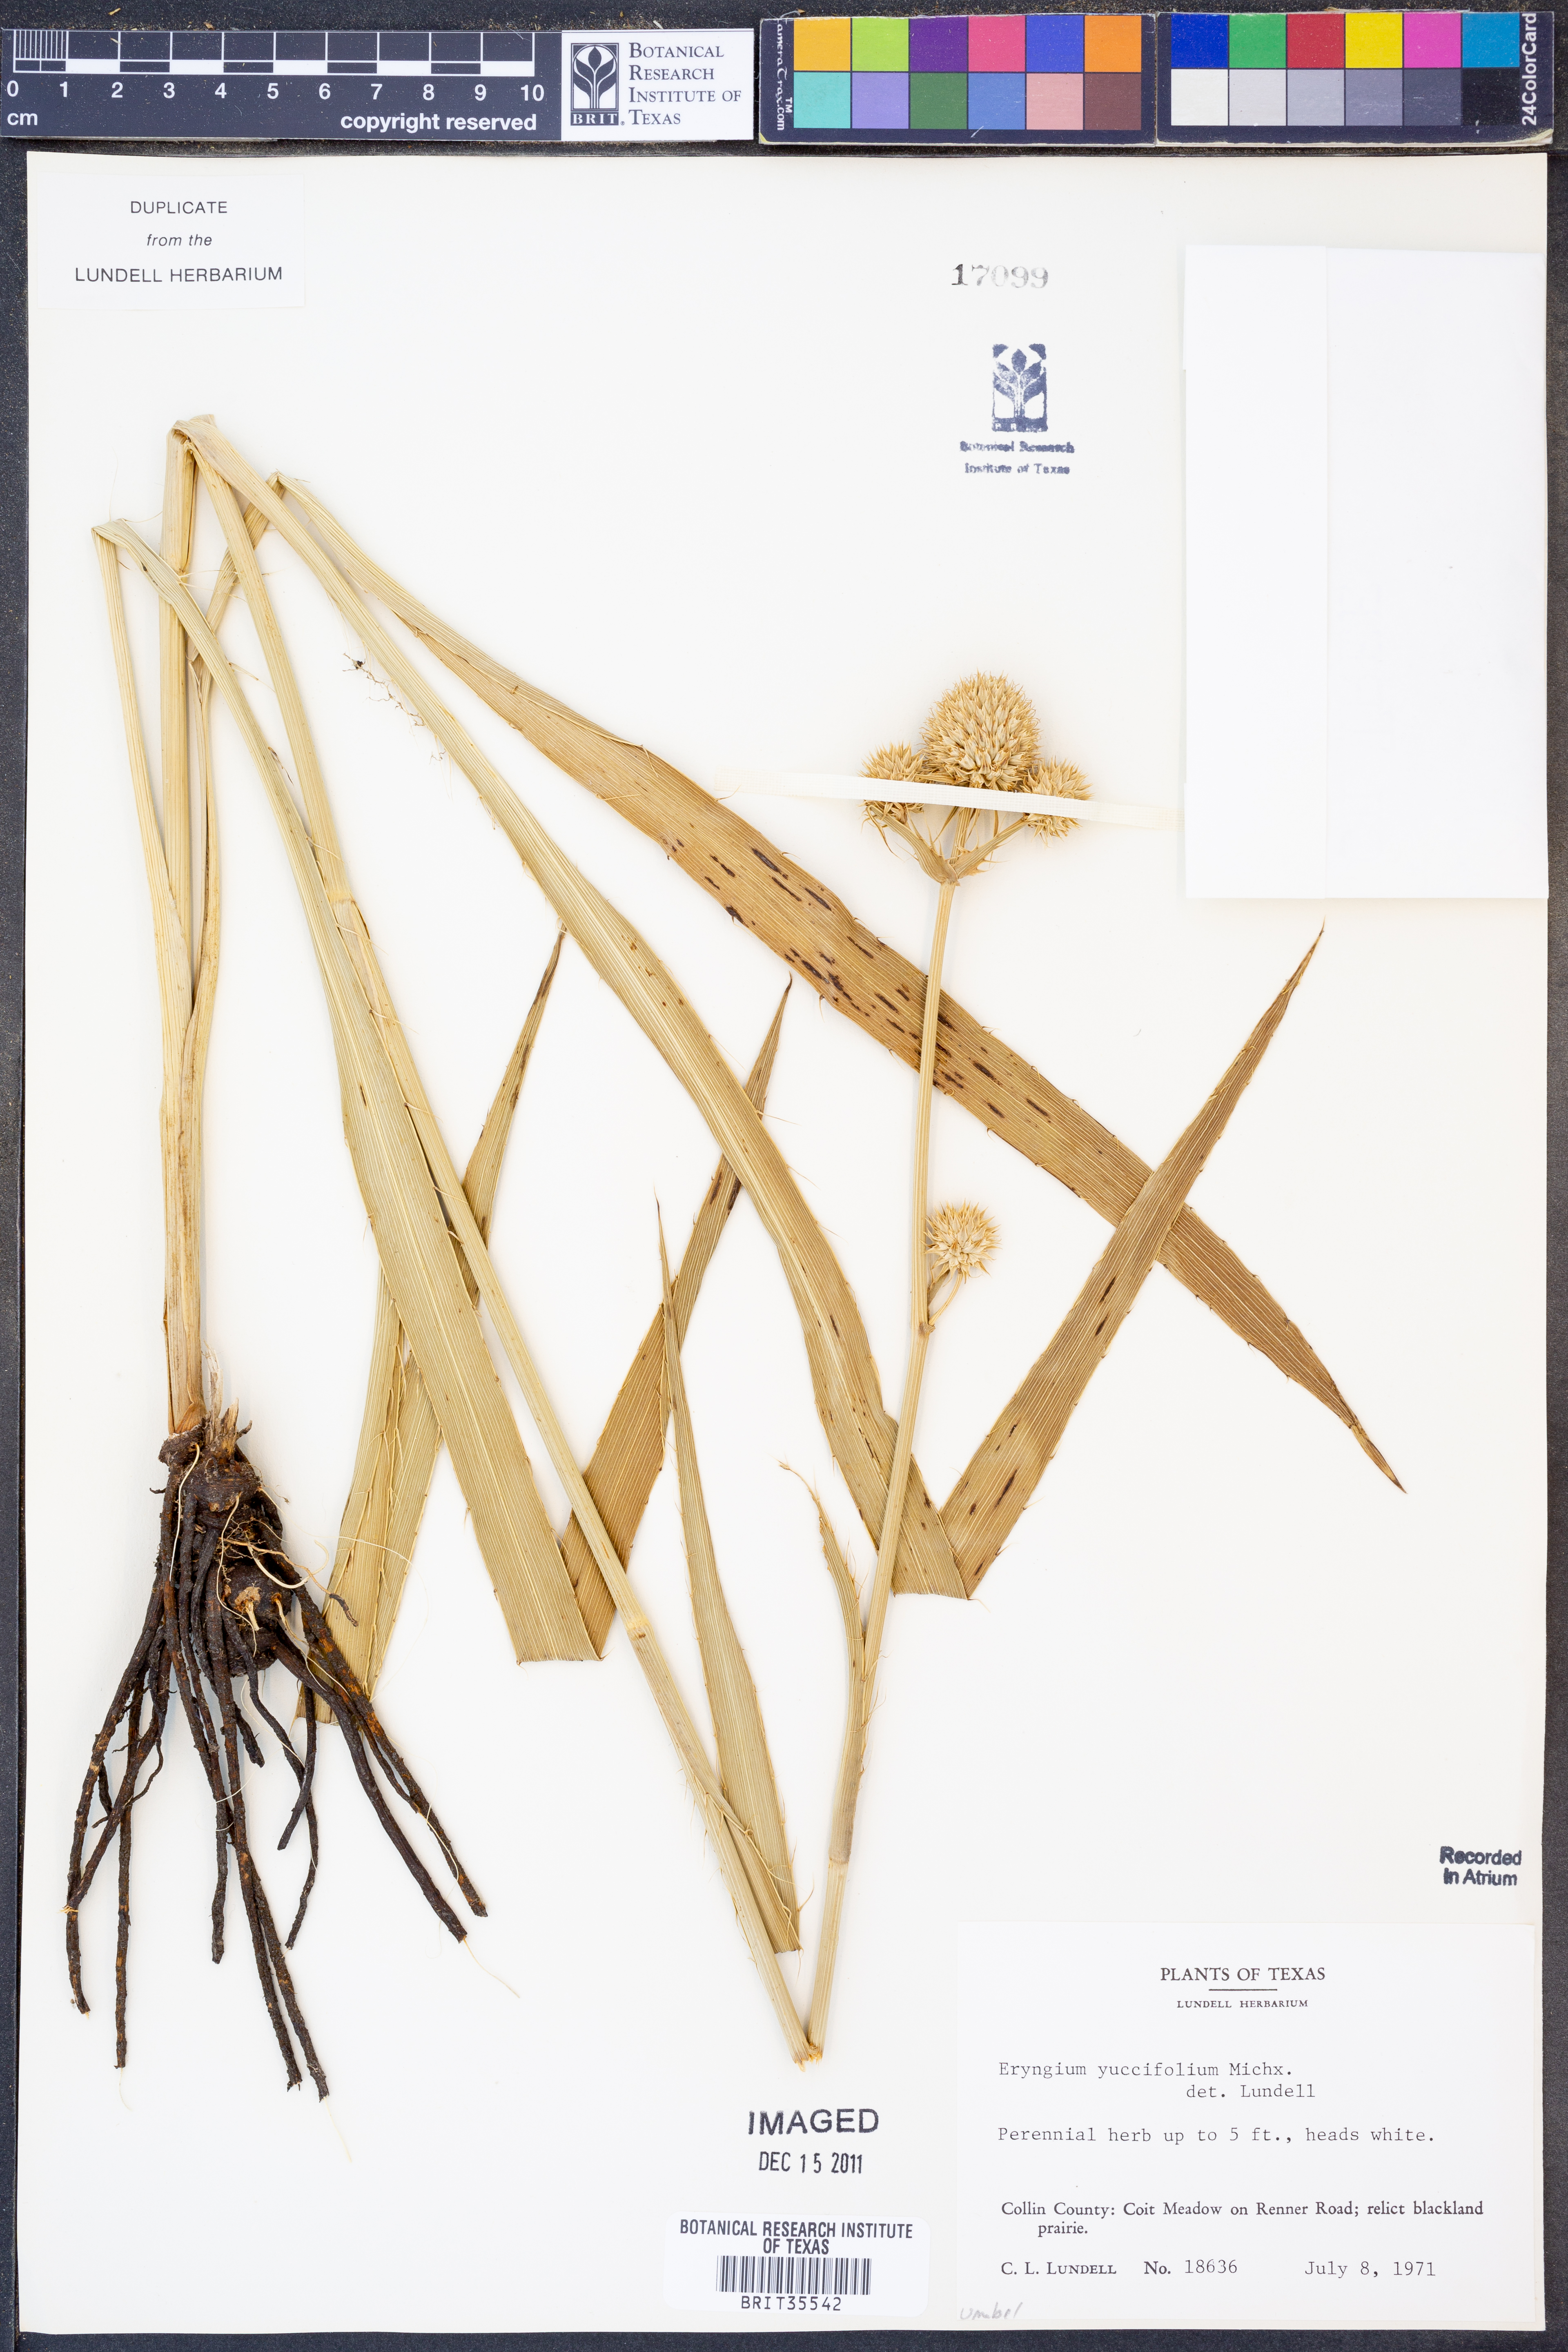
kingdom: Plantae
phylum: Tracheophyta
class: Magnoliopsida
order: Apiales
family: Apiaceae
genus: Eryngium
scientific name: Eryngium yuccifolium
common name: Button eryngo
